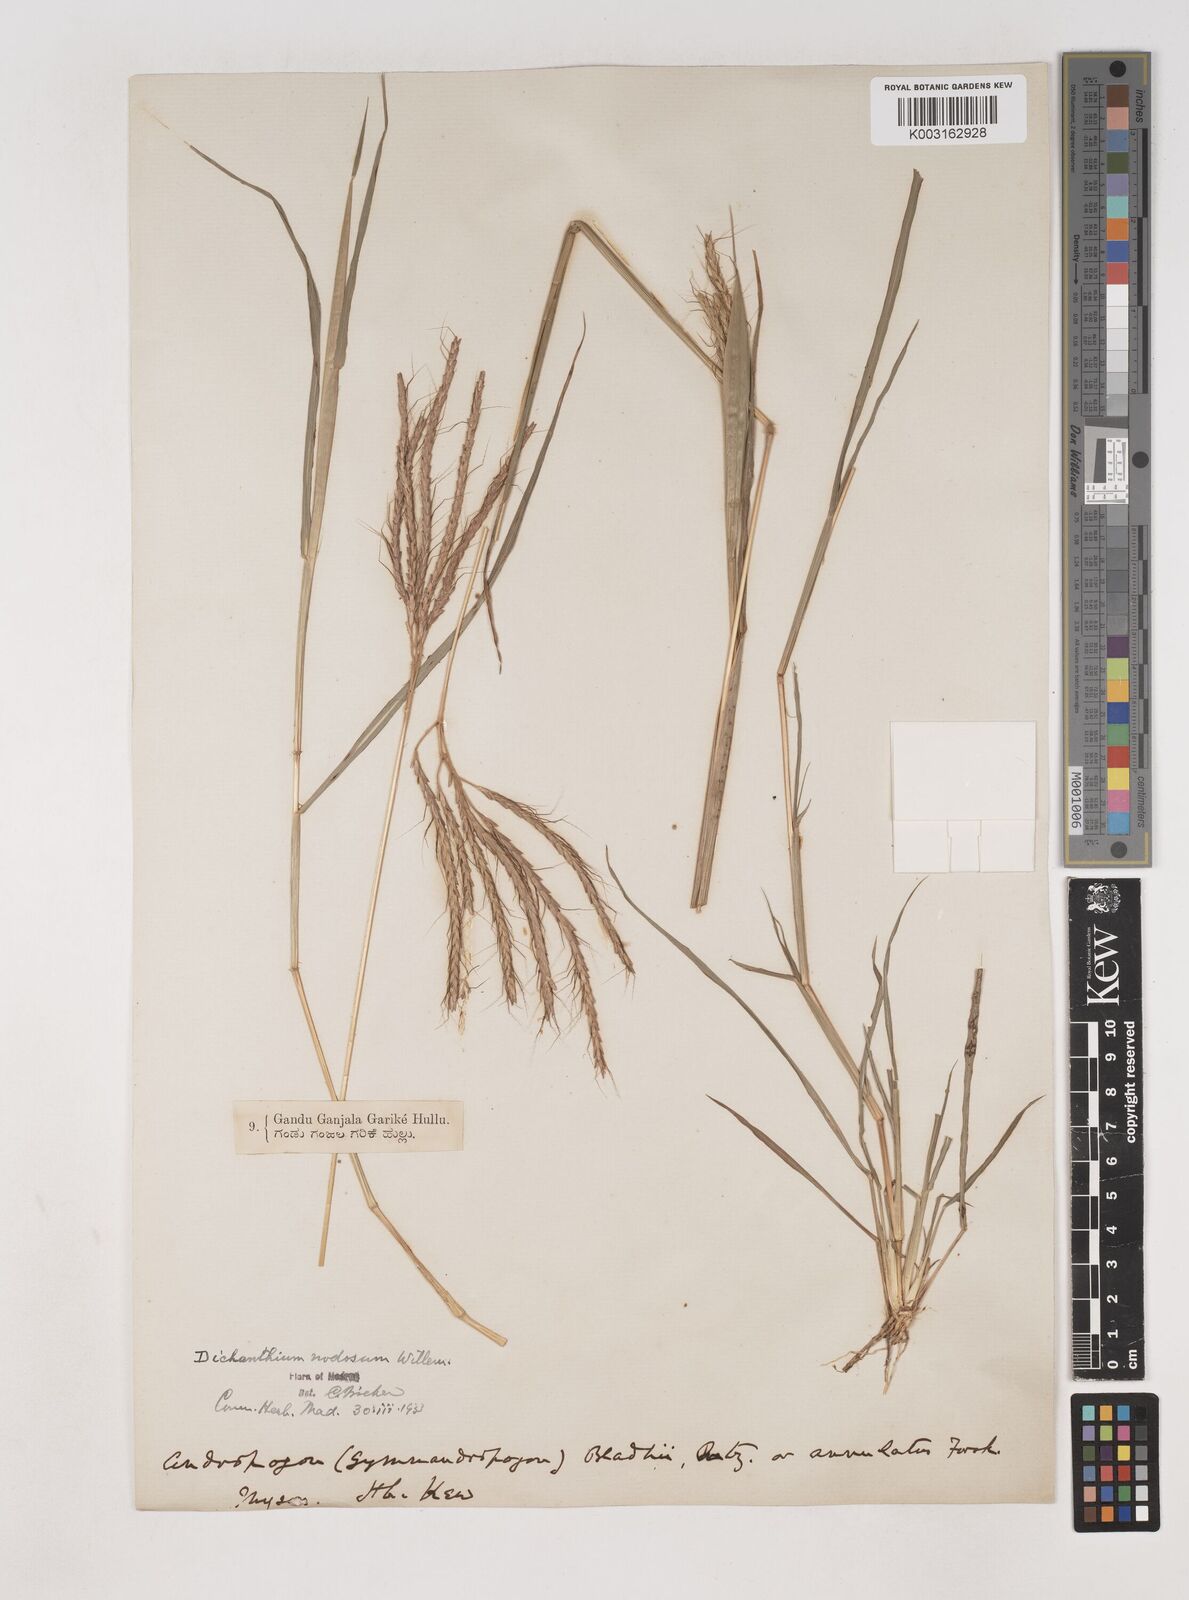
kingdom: Plantae
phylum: Tracheophyta
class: Liliopsida
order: Poales
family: Poaceae
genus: Dichanthium
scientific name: Dichanthium aristatum
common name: Angleton bluestem
